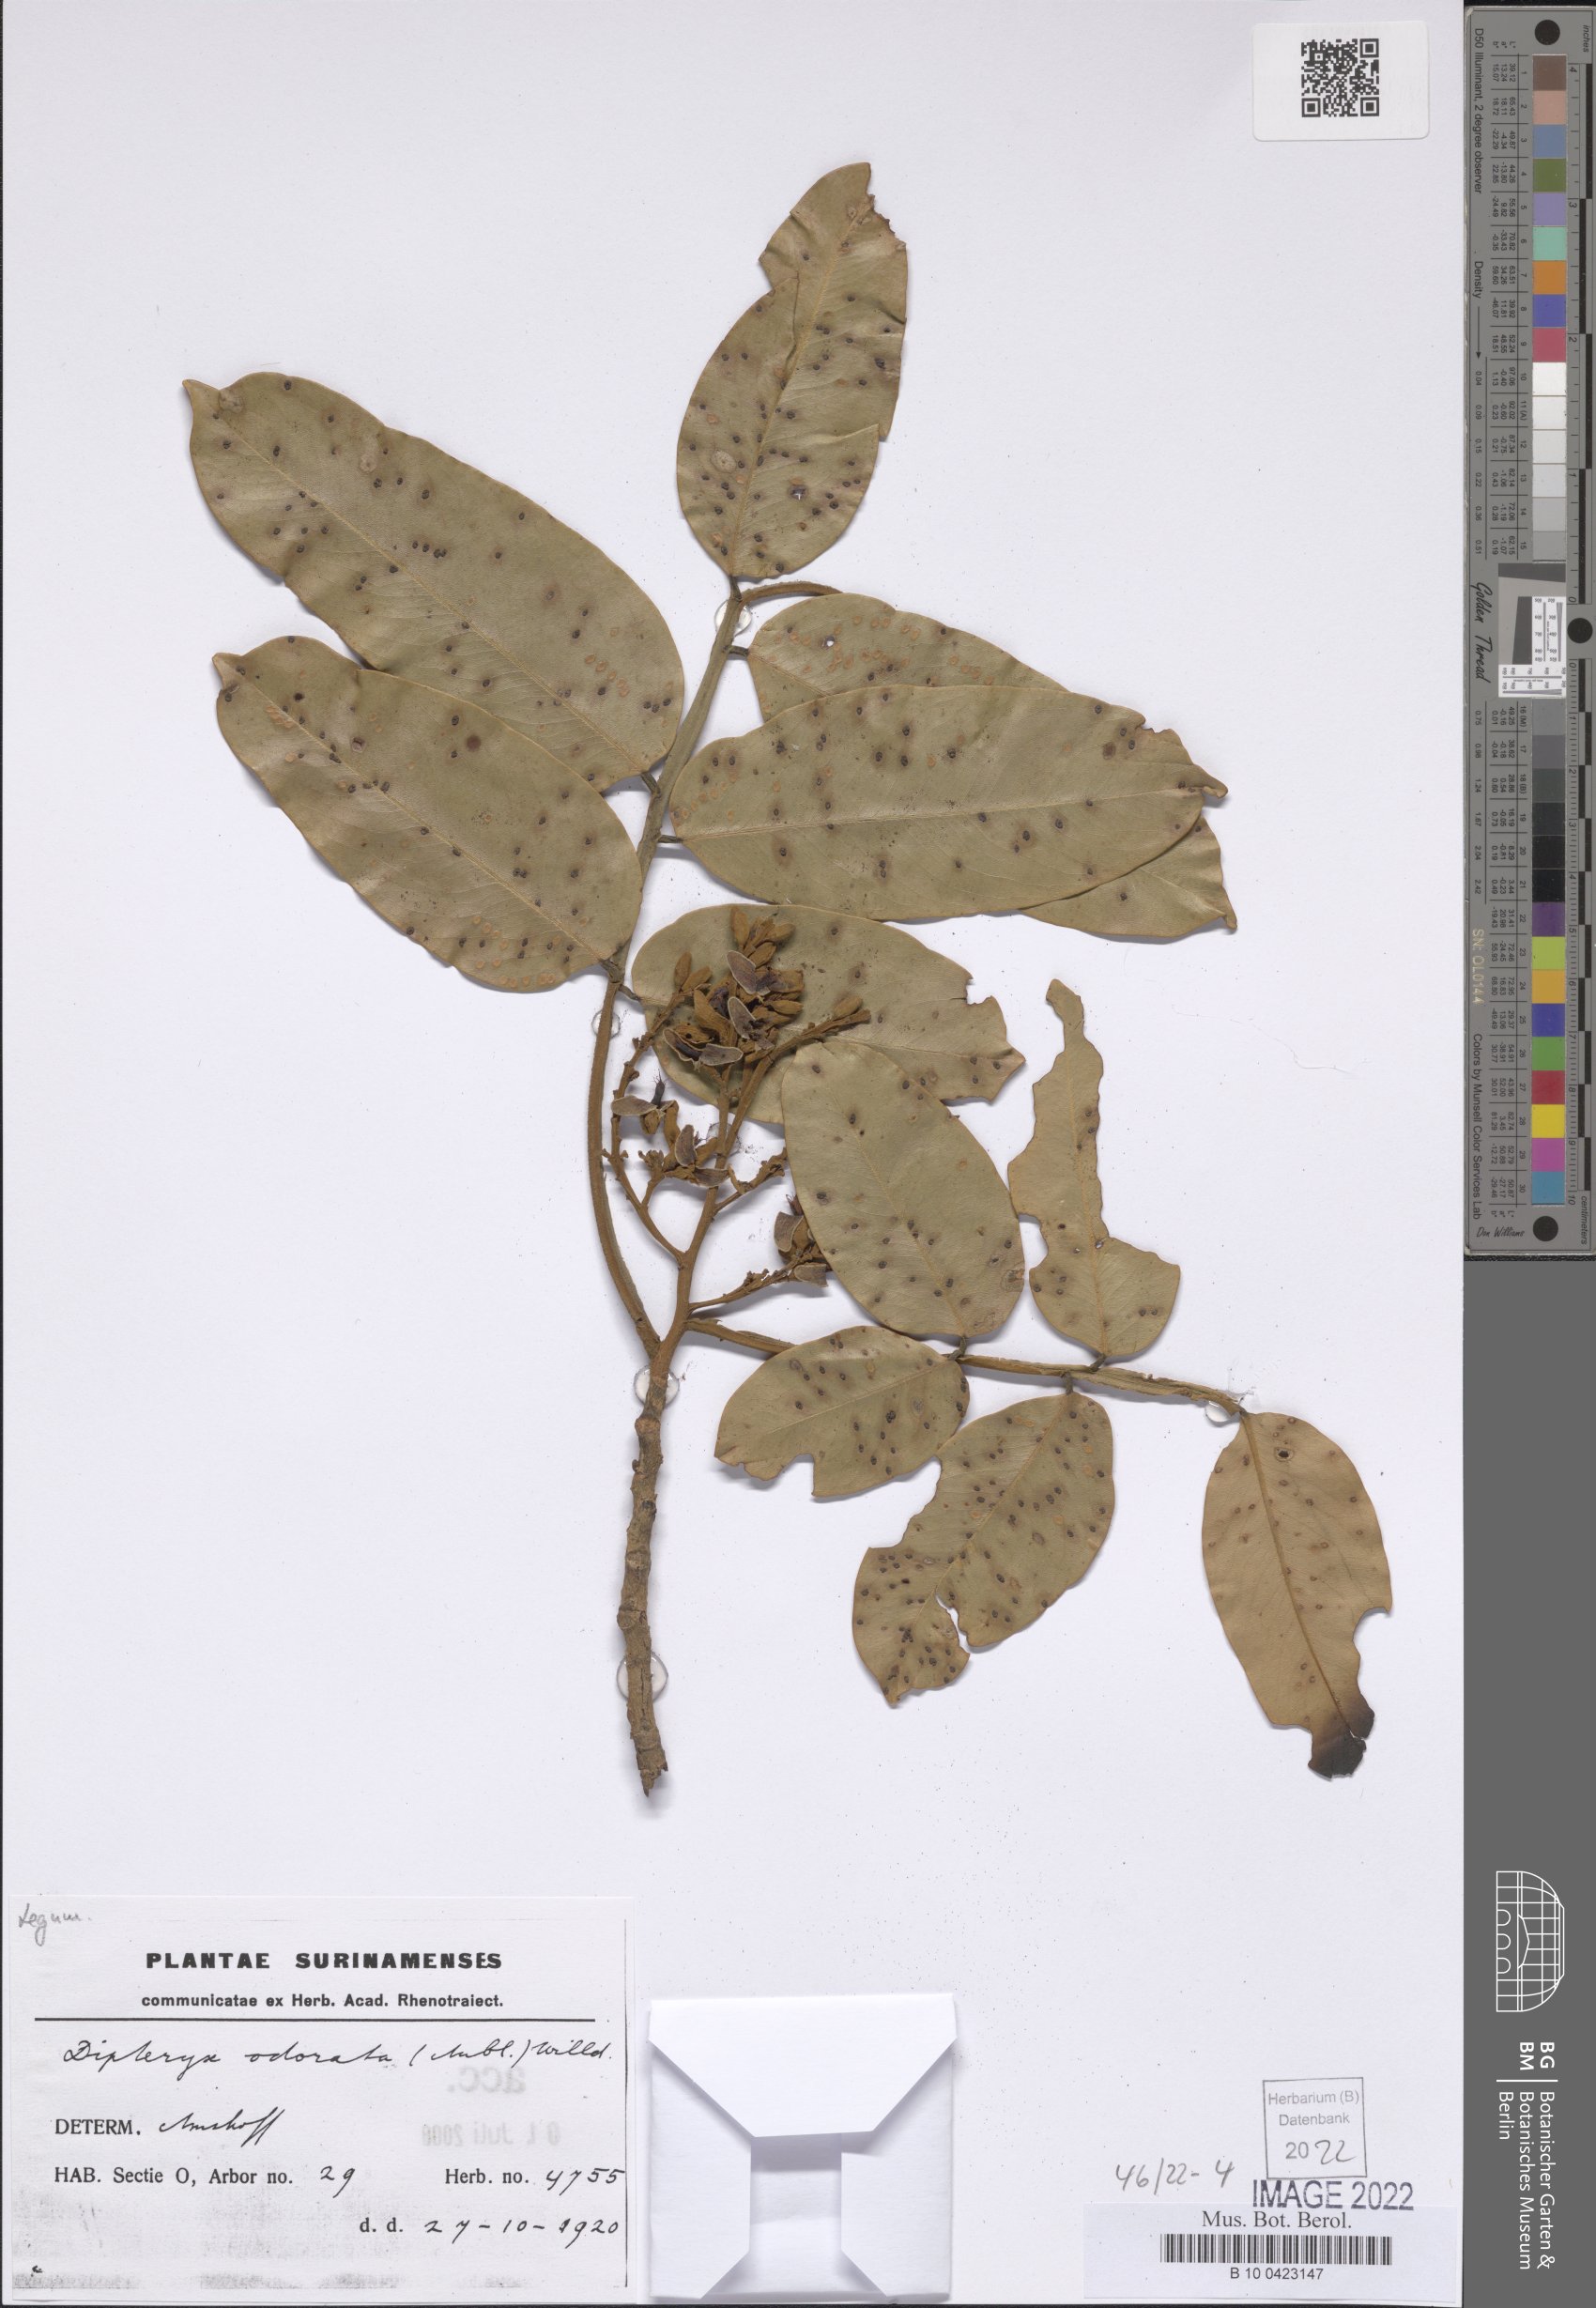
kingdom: Plantae
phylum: Tracheophyta
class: Magnoliopsida
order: Fabales
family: Fabaceae
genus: Dipteryx
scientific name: Dipteryx odorata
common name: Tonka
